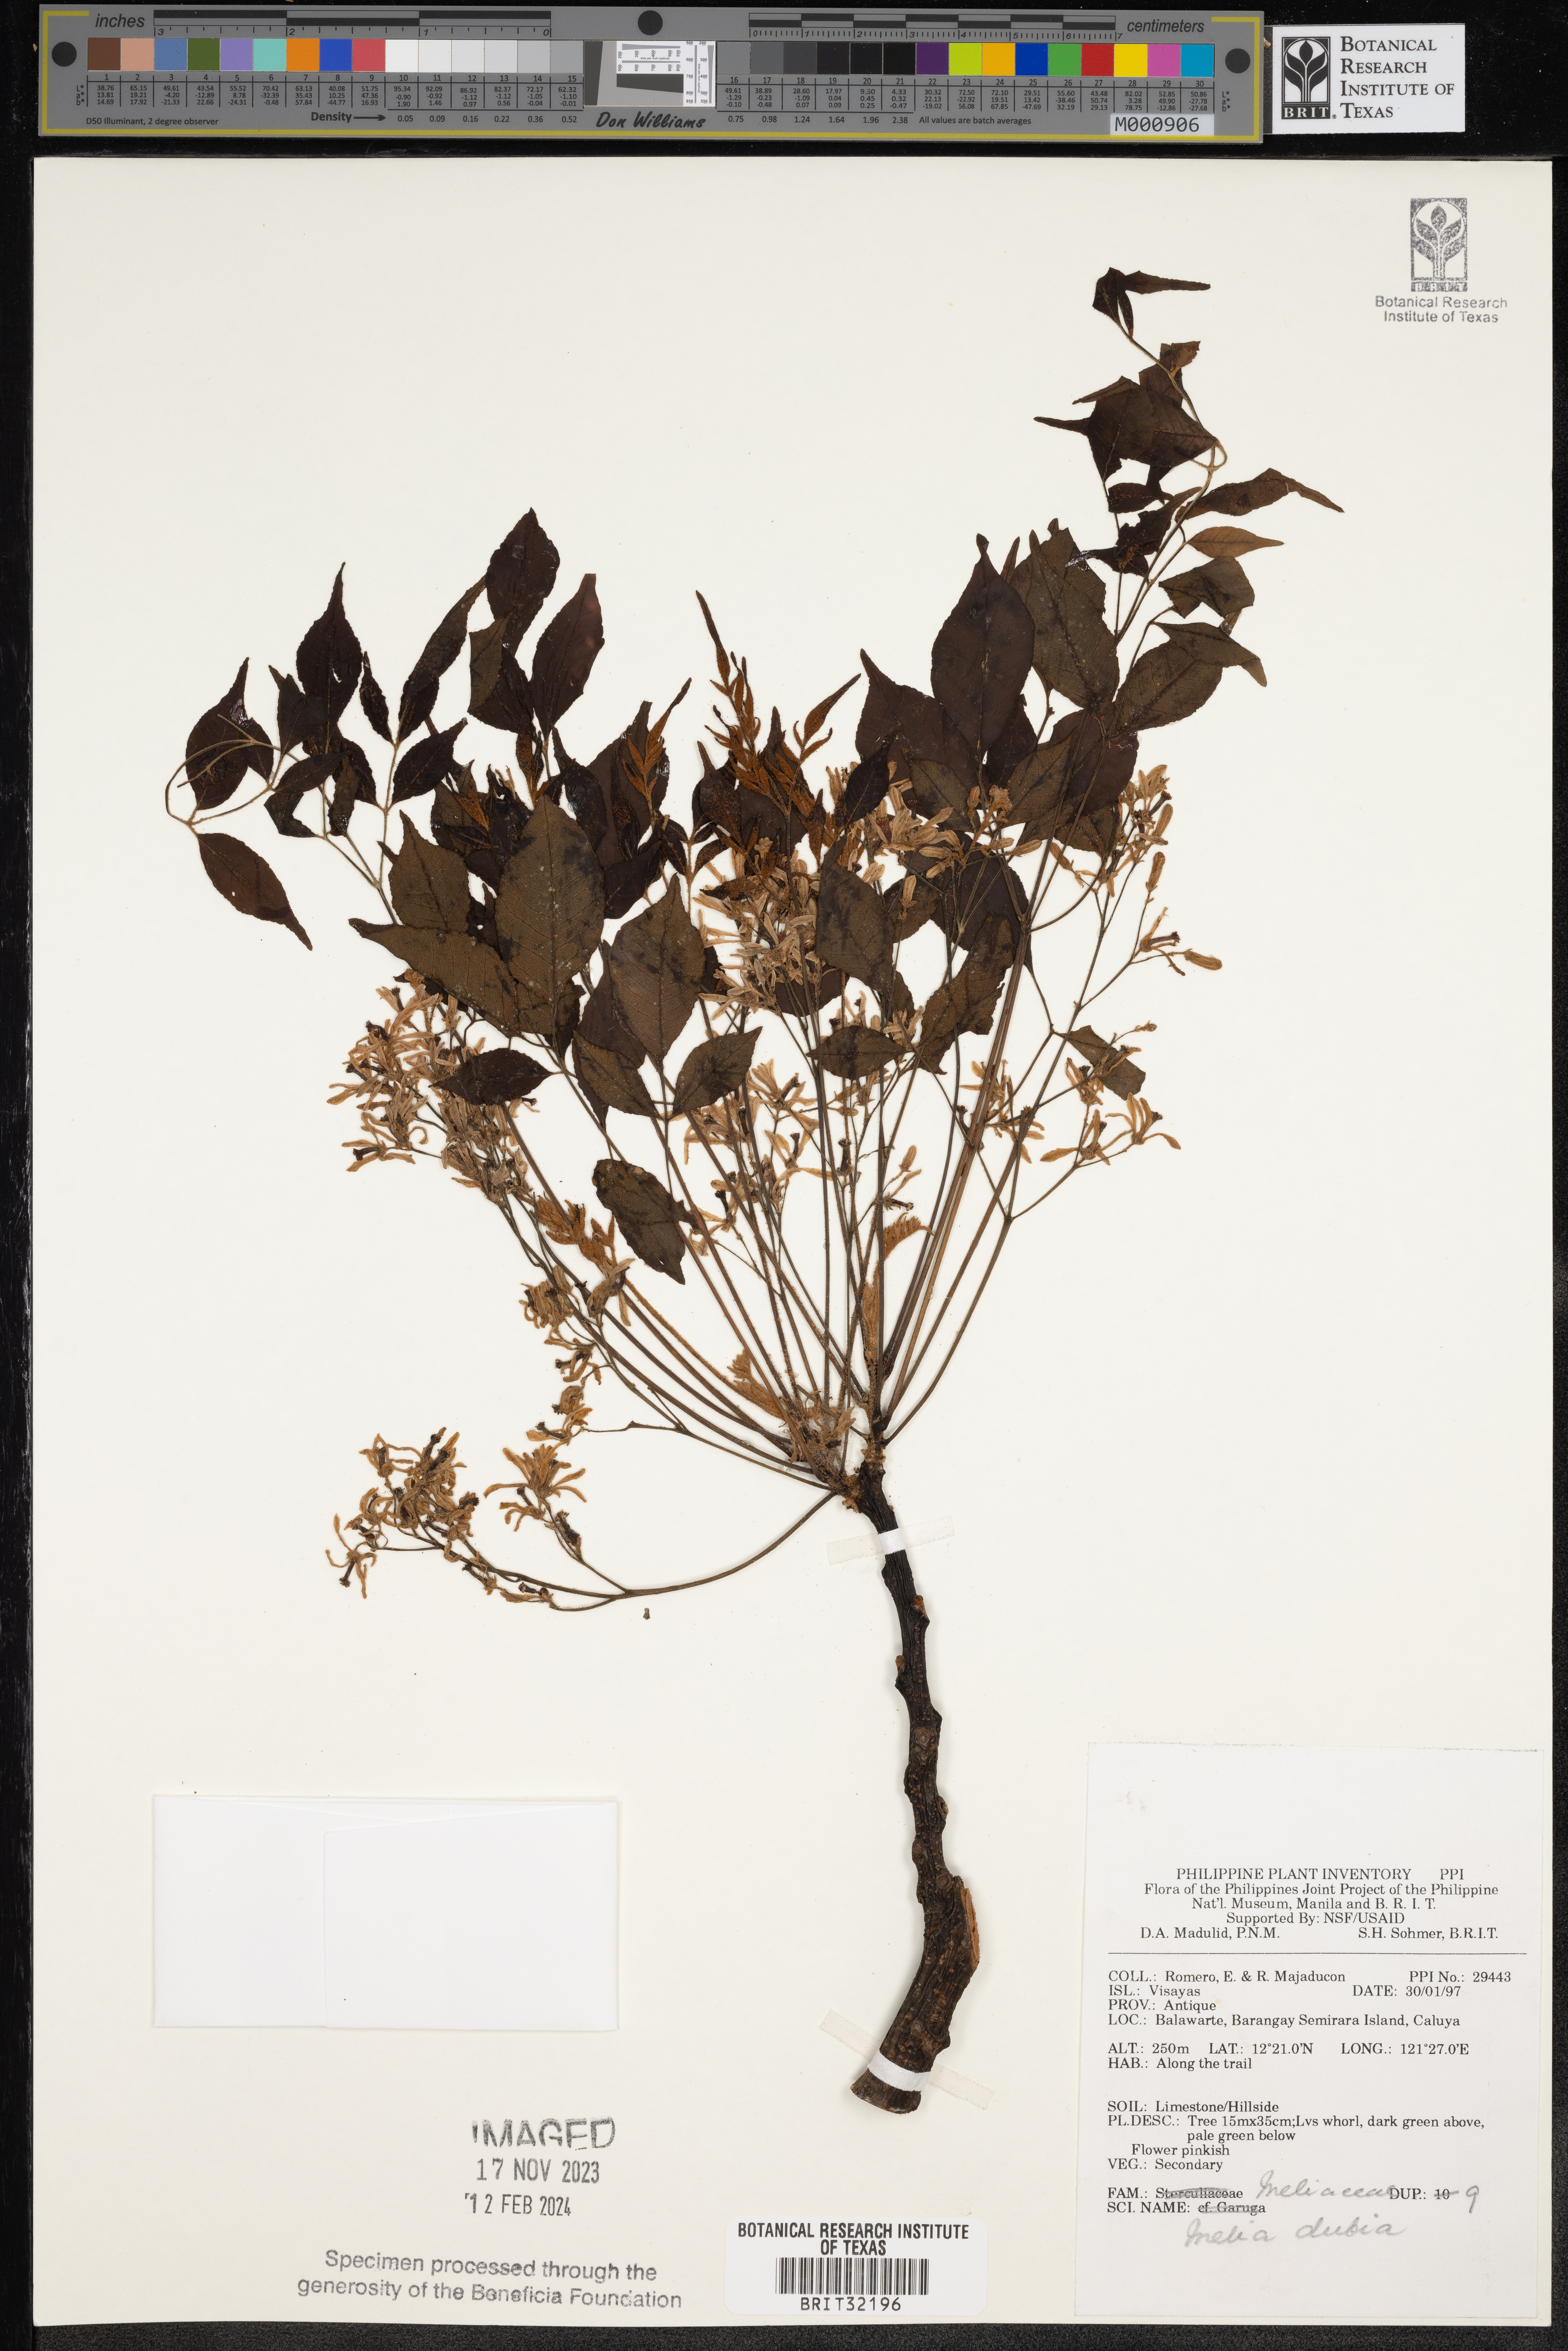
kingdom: Plantae
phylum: Tracheophyta
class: Magnoliopsida
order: Sapindales
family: Meliaceae
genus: Melia
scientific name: Melia azedarach
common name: Chinaberrytree
